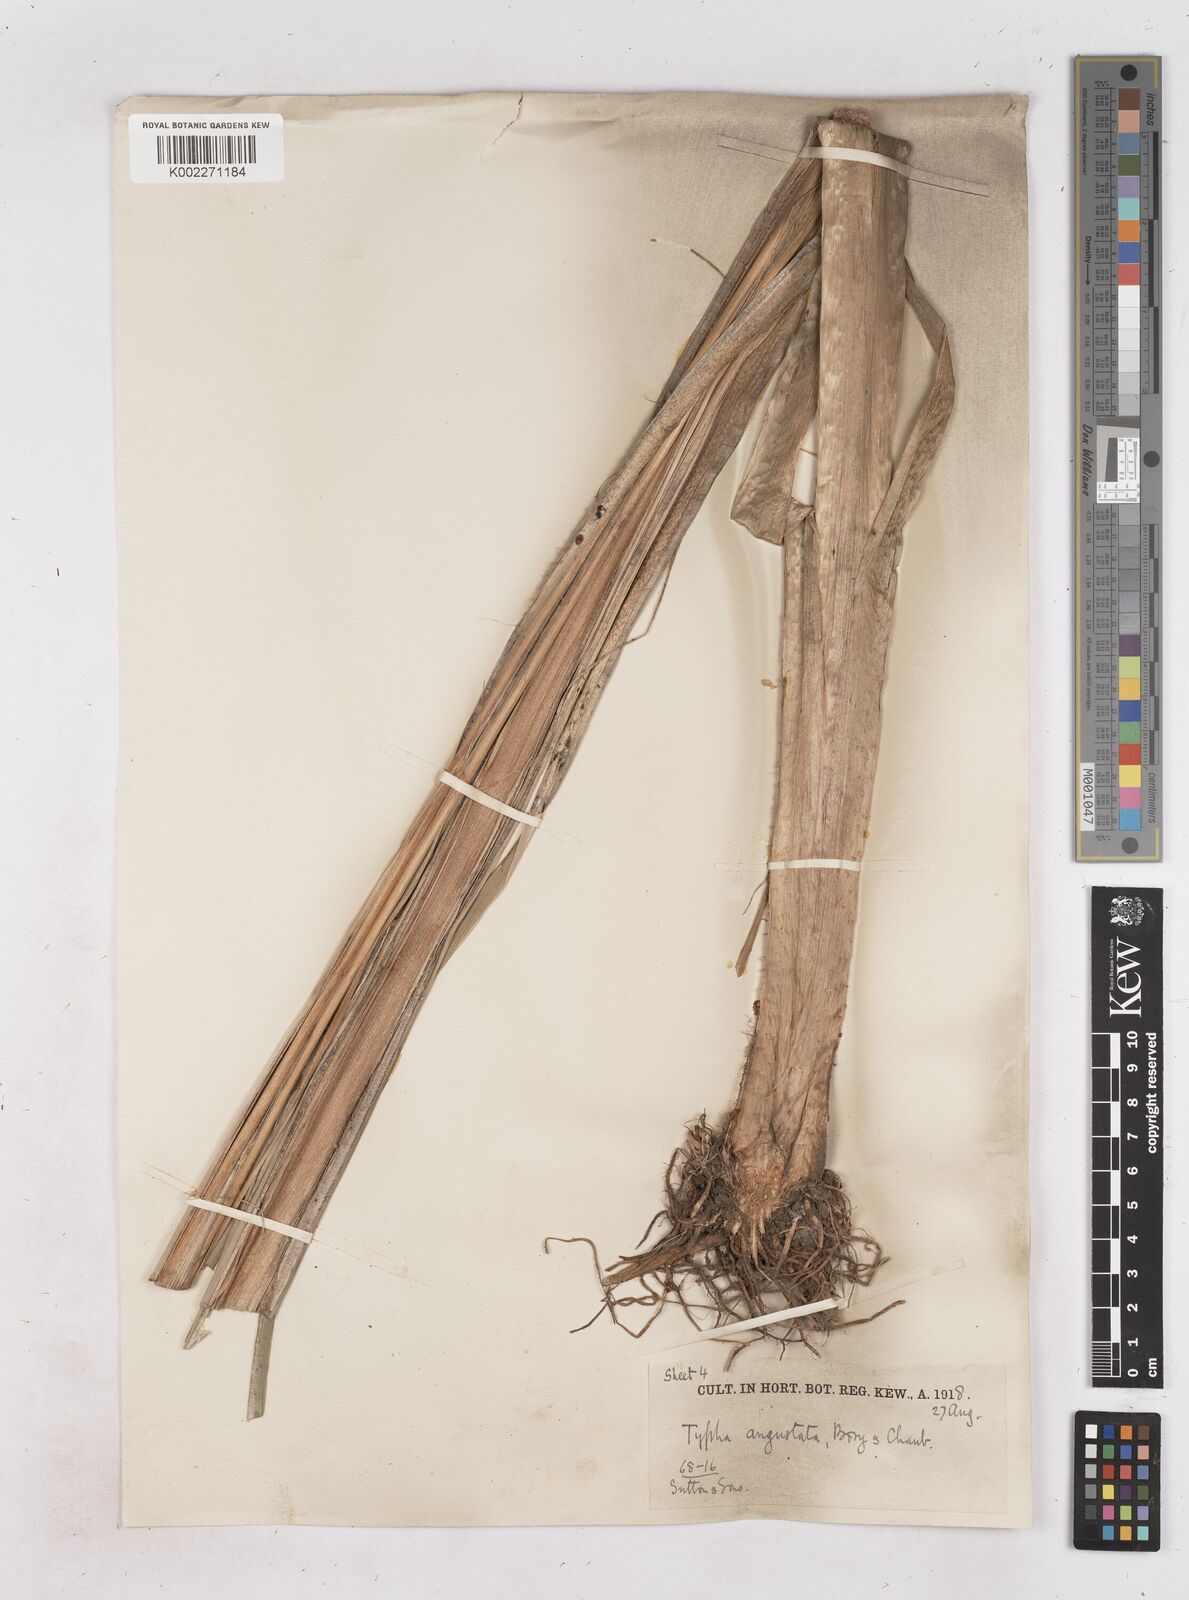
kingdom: Plantae
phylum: Tracheophyta
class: Liliopsida
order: Poales
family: Typhaceae
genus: Typha
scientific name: Typha domingensis
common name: Southern cattail
